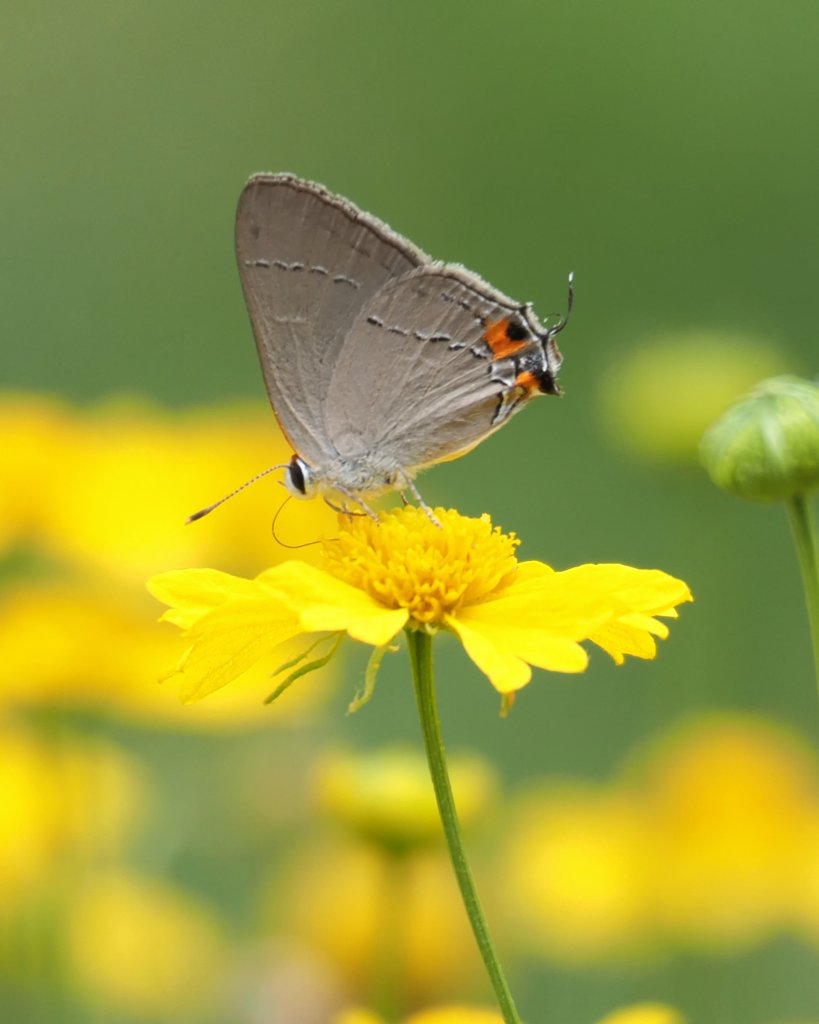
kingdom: Animalia
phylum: Arthropoda
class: Insecta
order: Lepidoptera
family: Lycaenidae
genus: Strymon
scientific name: Strymon melinus
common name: Gray Hairstreak
